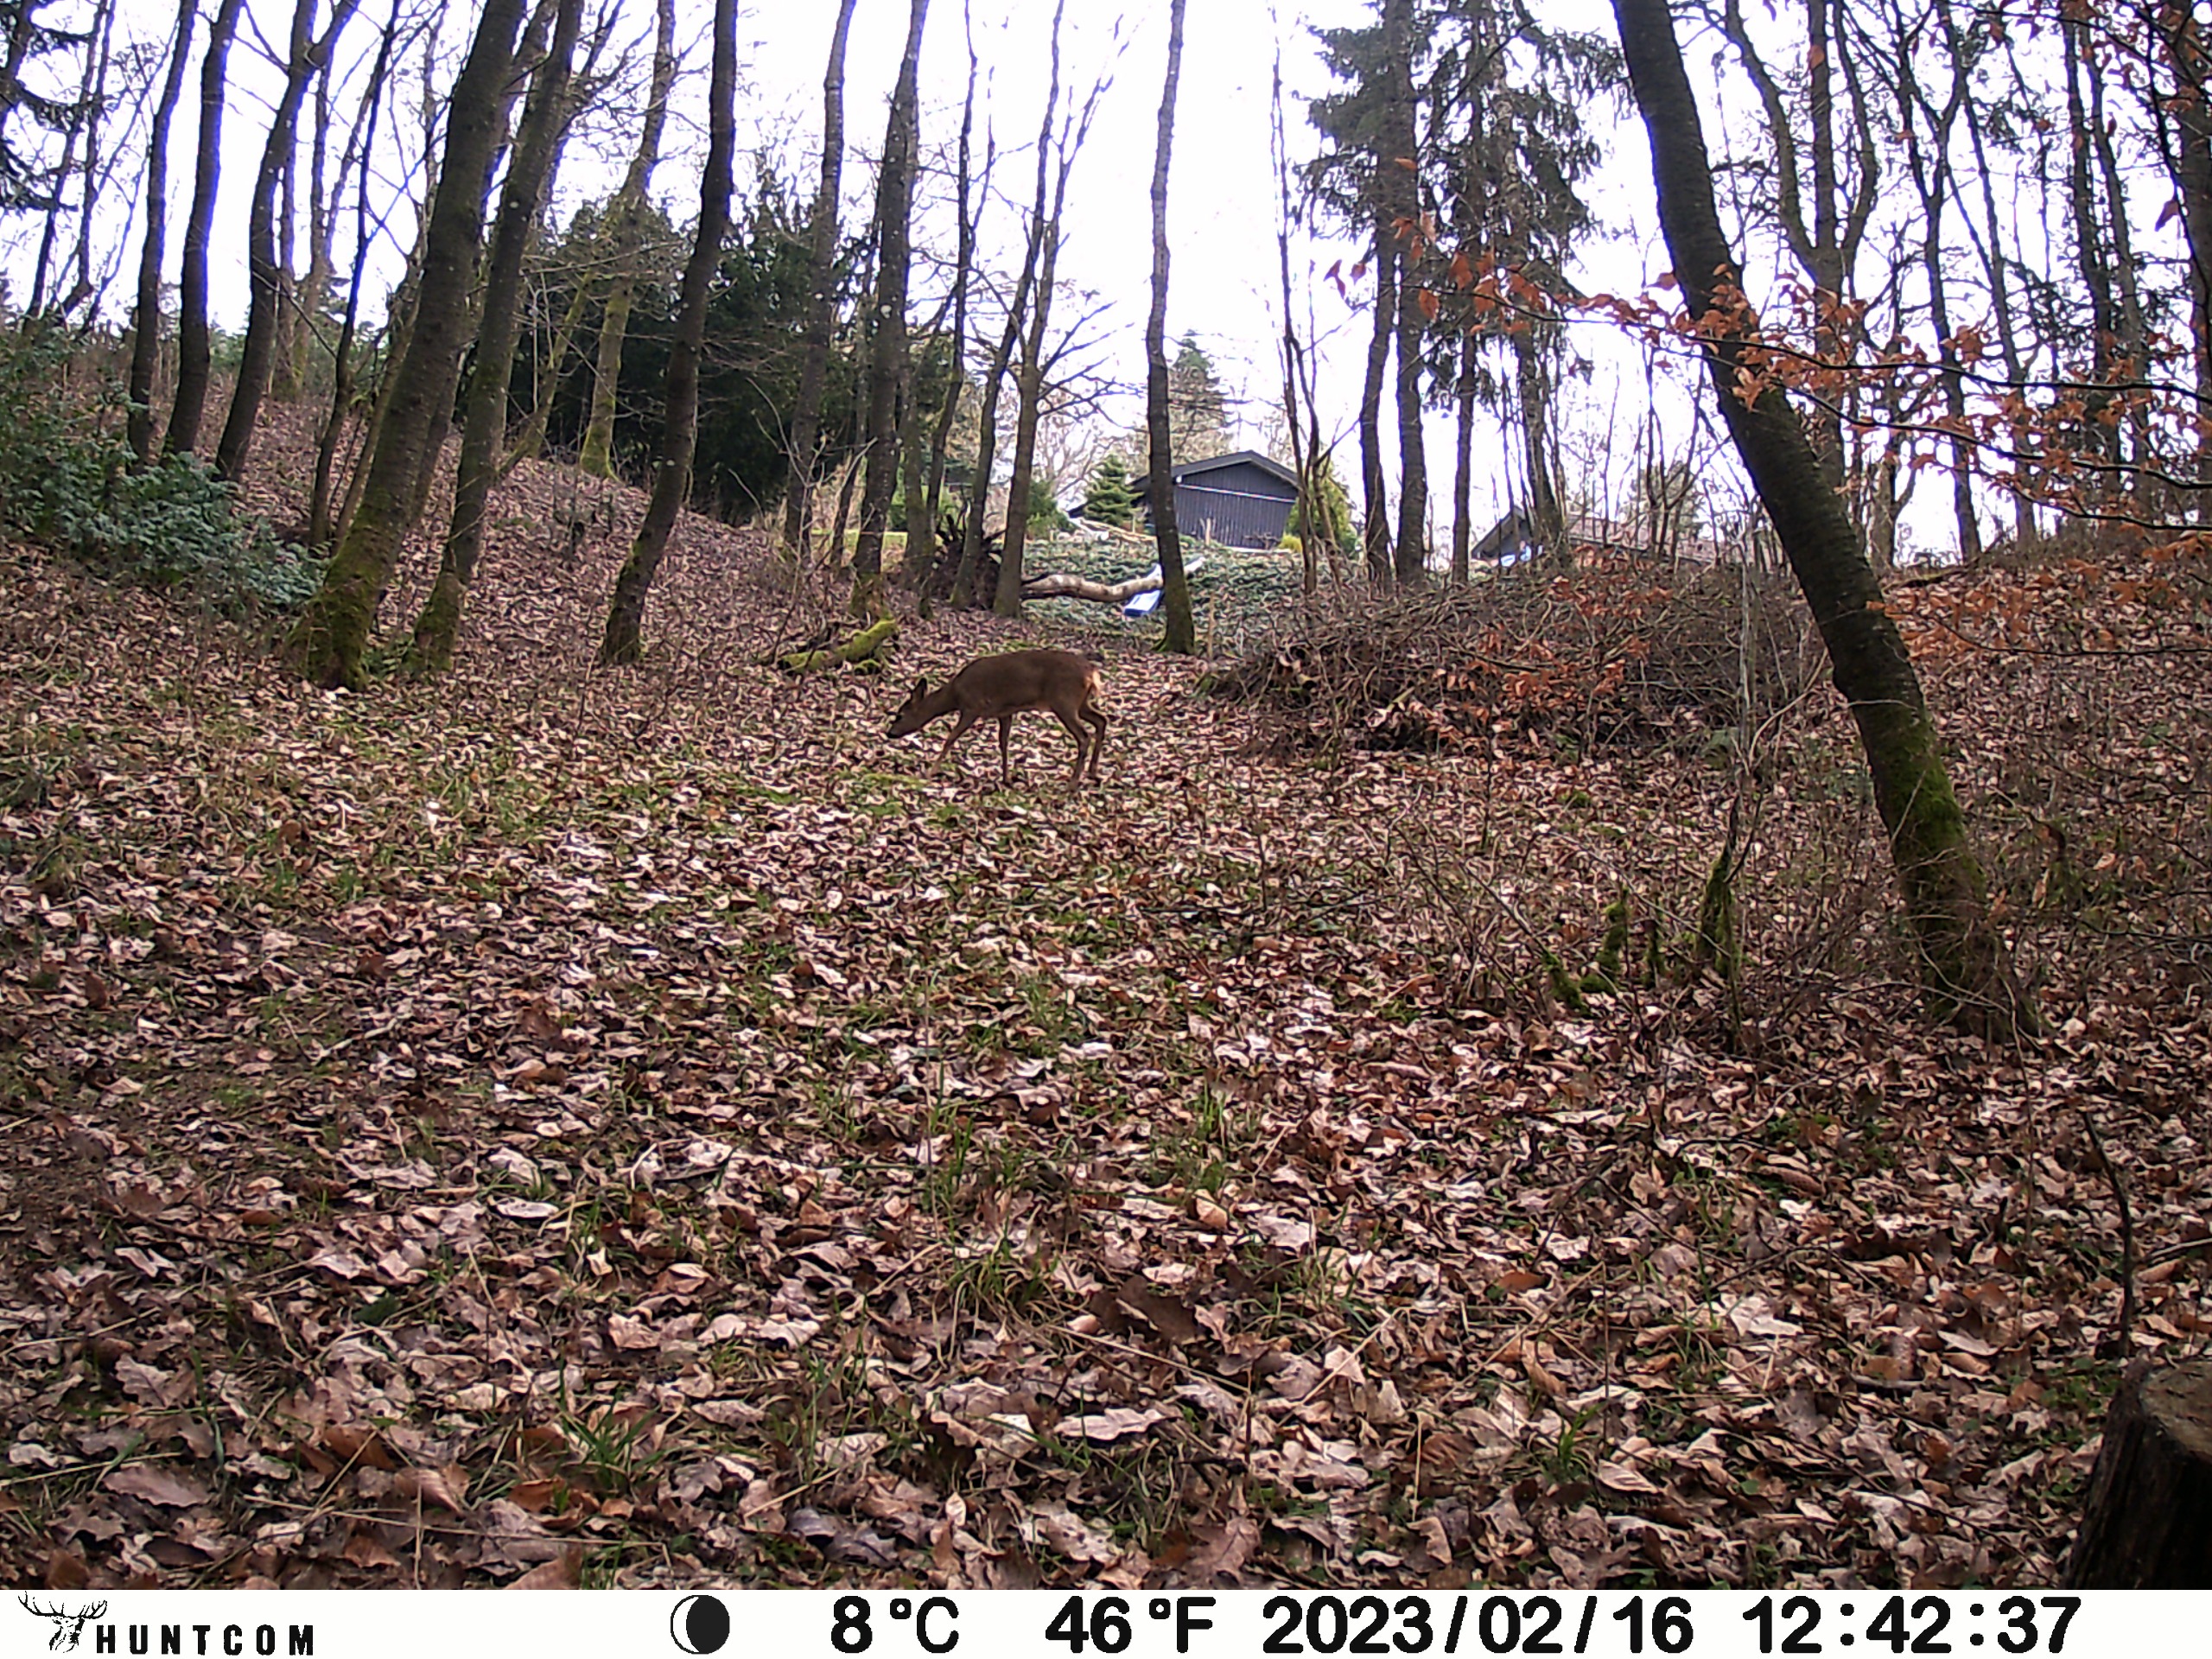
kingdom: Animalia
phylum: Chordata
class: Mammalia
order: Artiodactyla
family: Cervidae
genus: Capreolus
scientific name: Capreolus capreolus
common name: Rådyr
